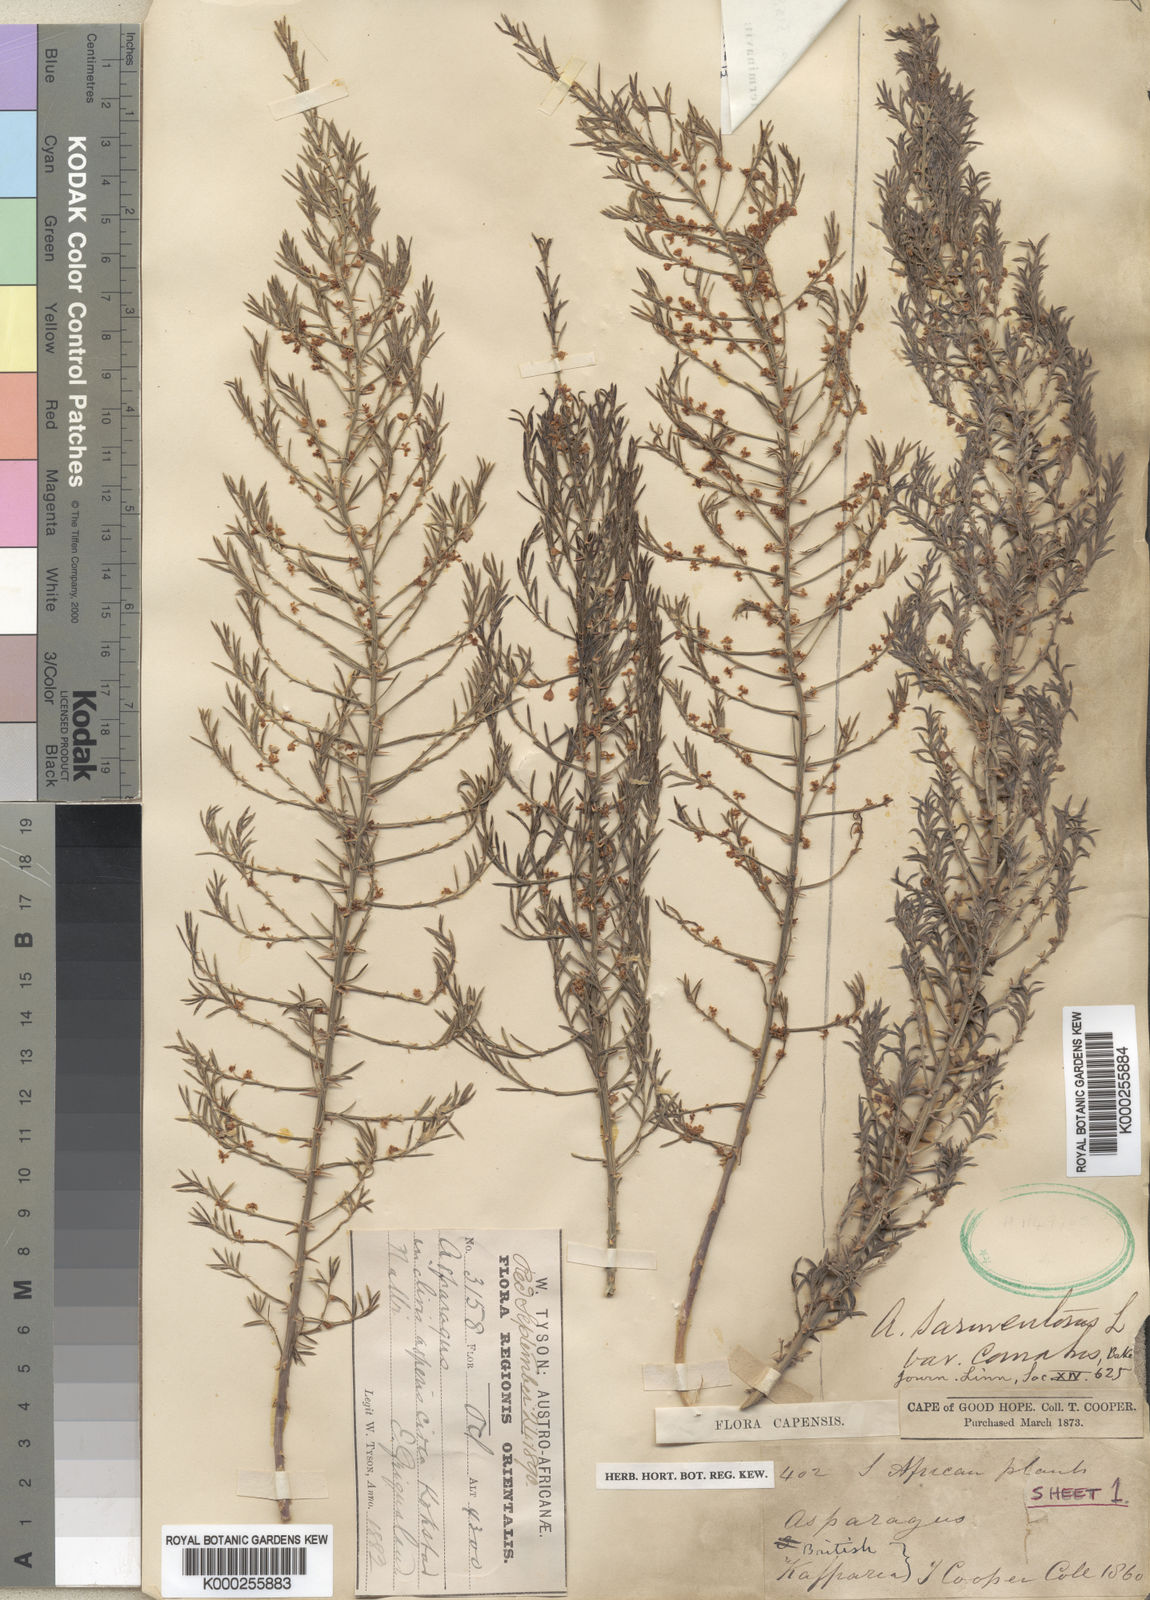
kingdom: Plantae
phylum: Tracheophyta
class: Liliopsida
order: Asparagales
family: Asparagaceae
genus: Asparagus
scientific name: Asparagus densiflorus
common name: Asparagus fern
